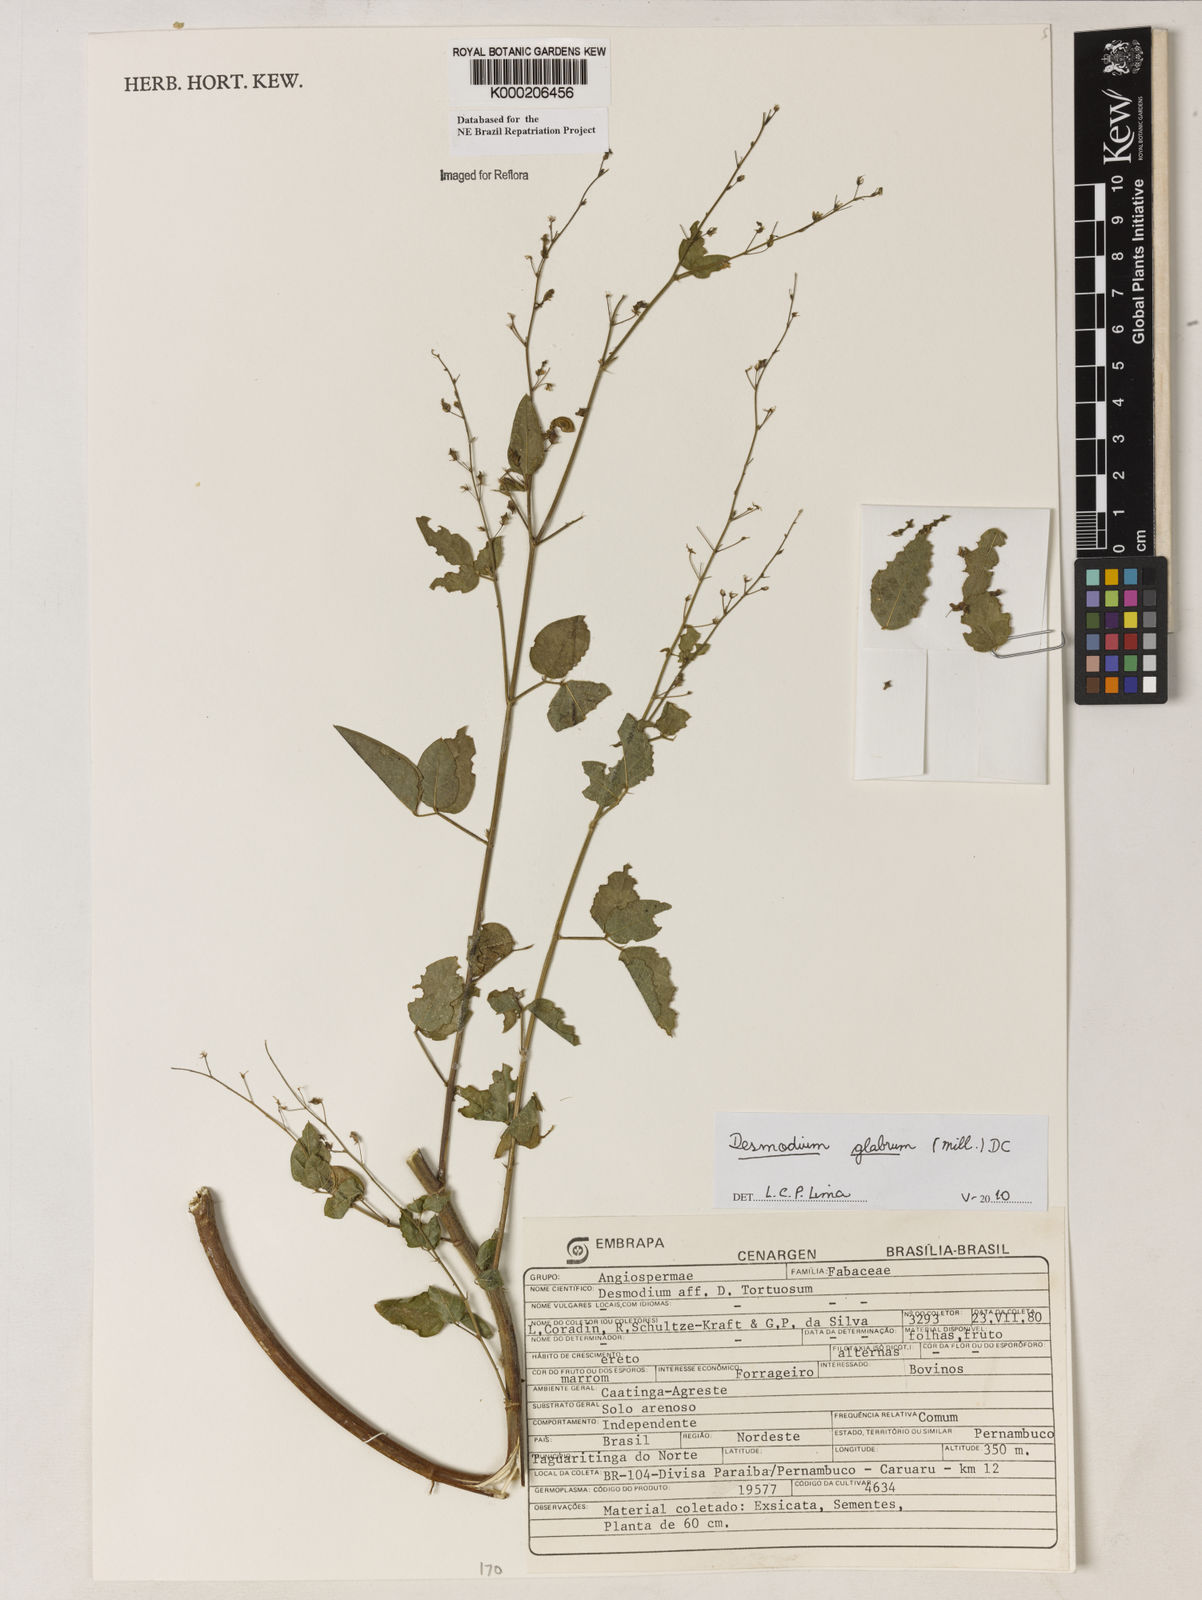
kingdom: Plantae
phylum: Tracheophyta
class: Magnoliopsida
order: Fabales
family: Fabaceae
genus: Desmodium
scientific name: Desmodium tortuosum
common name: Dixie ticktrefoil
